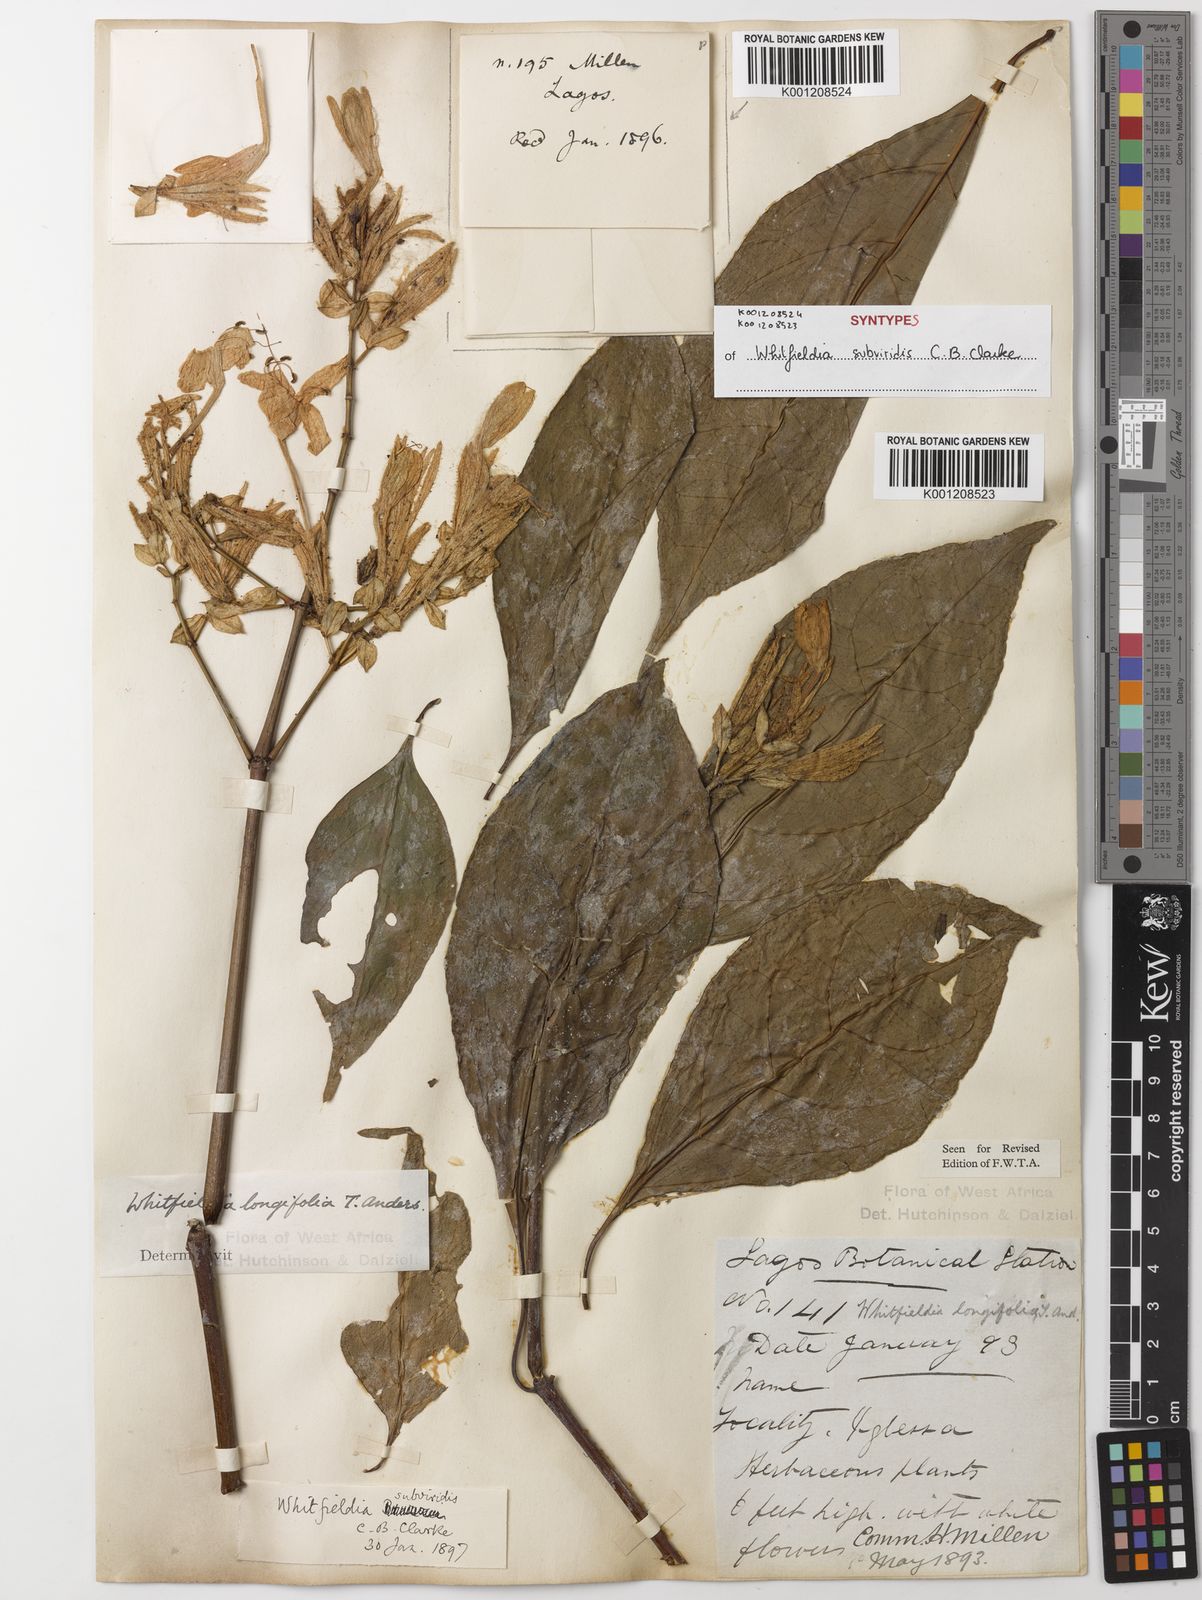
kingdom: Plantae
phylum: Tracheophyta
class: Magnoliopsida
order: Lamiales
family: Acanthaceae
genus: Whitfieldia
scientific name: Whitfieldia
